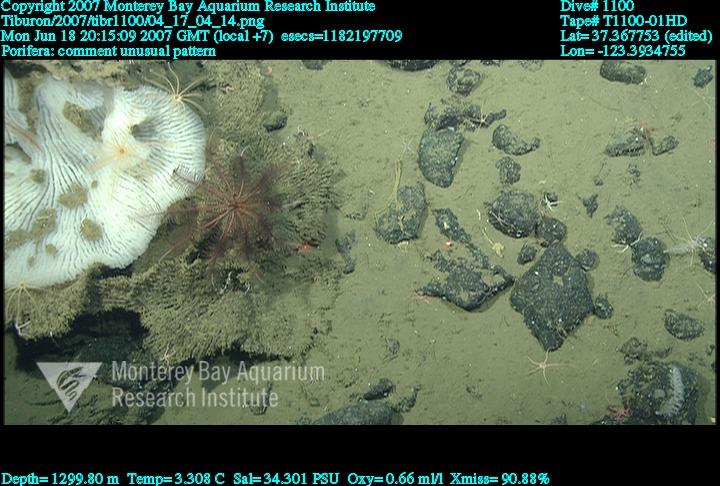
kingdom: Animalia
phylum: Porifera
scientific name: Porifera
